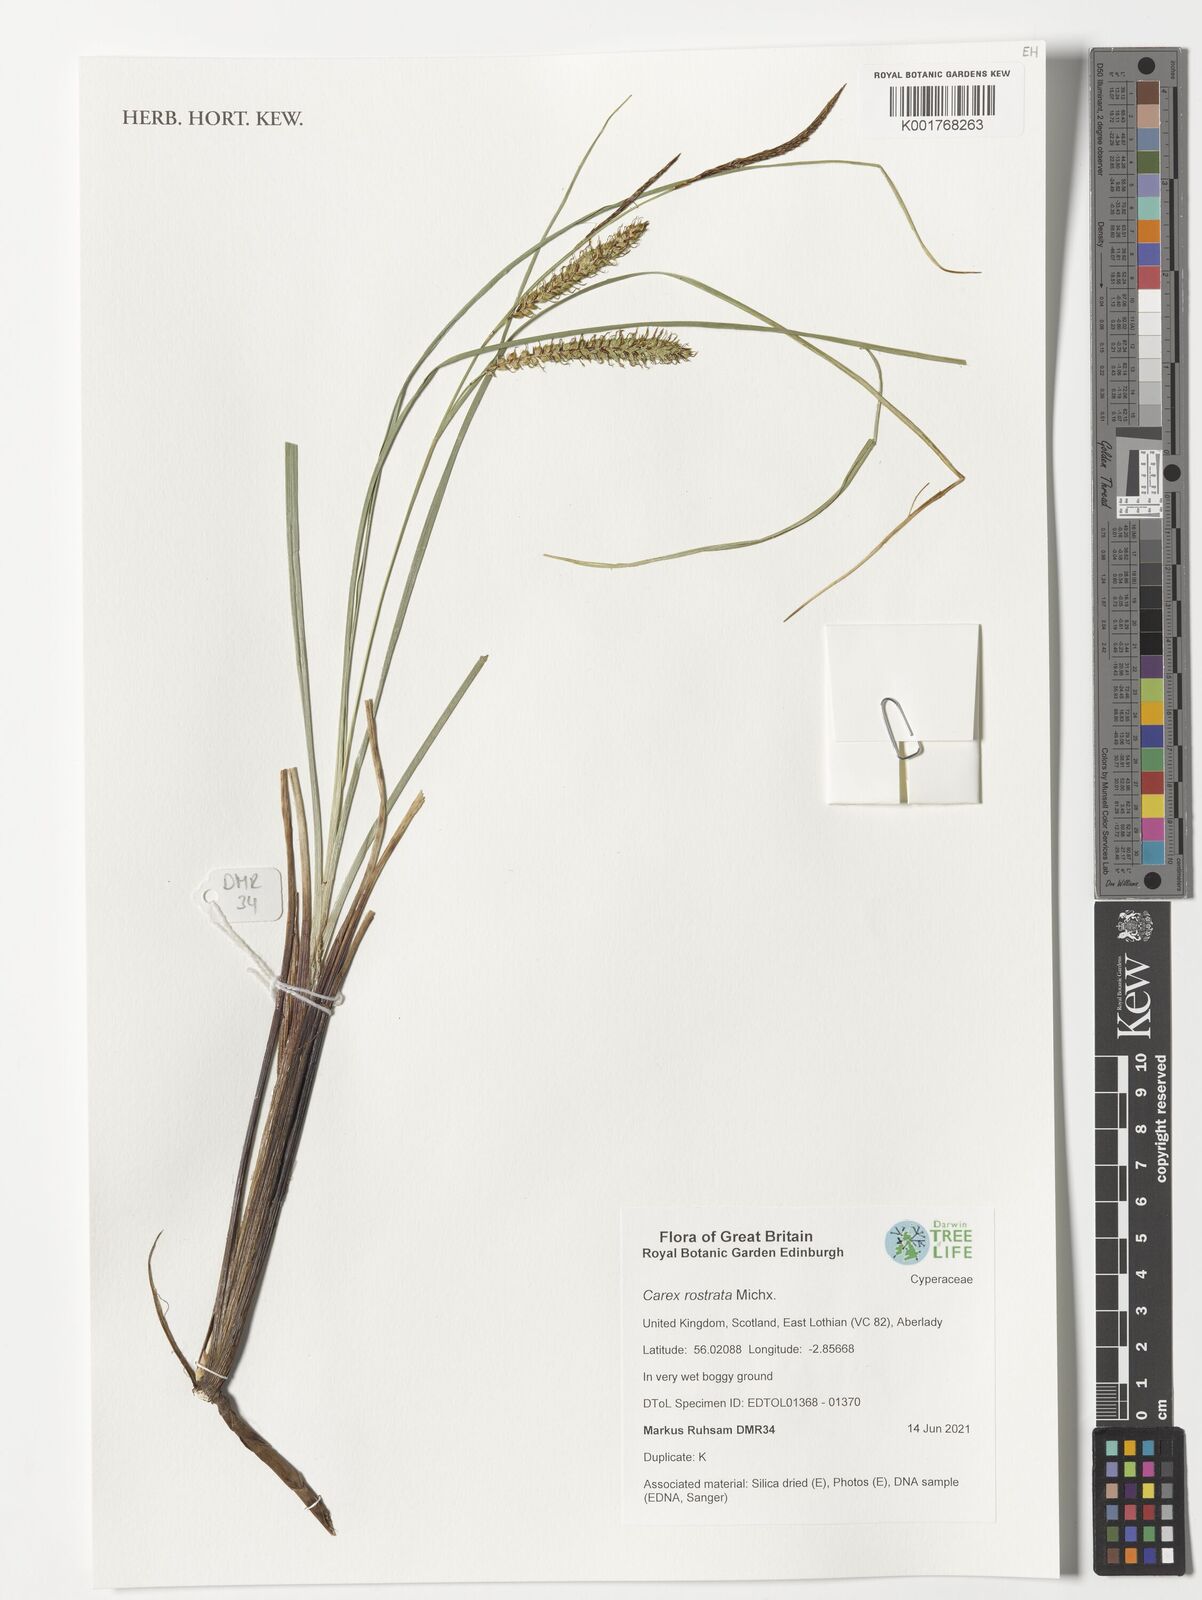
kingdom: Plantae
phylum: Tracheophyta
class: Liliopsida
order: Poales
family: Cyperaceae
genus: Carex
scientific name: Carex michauxiana
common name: Michaux's sedge
